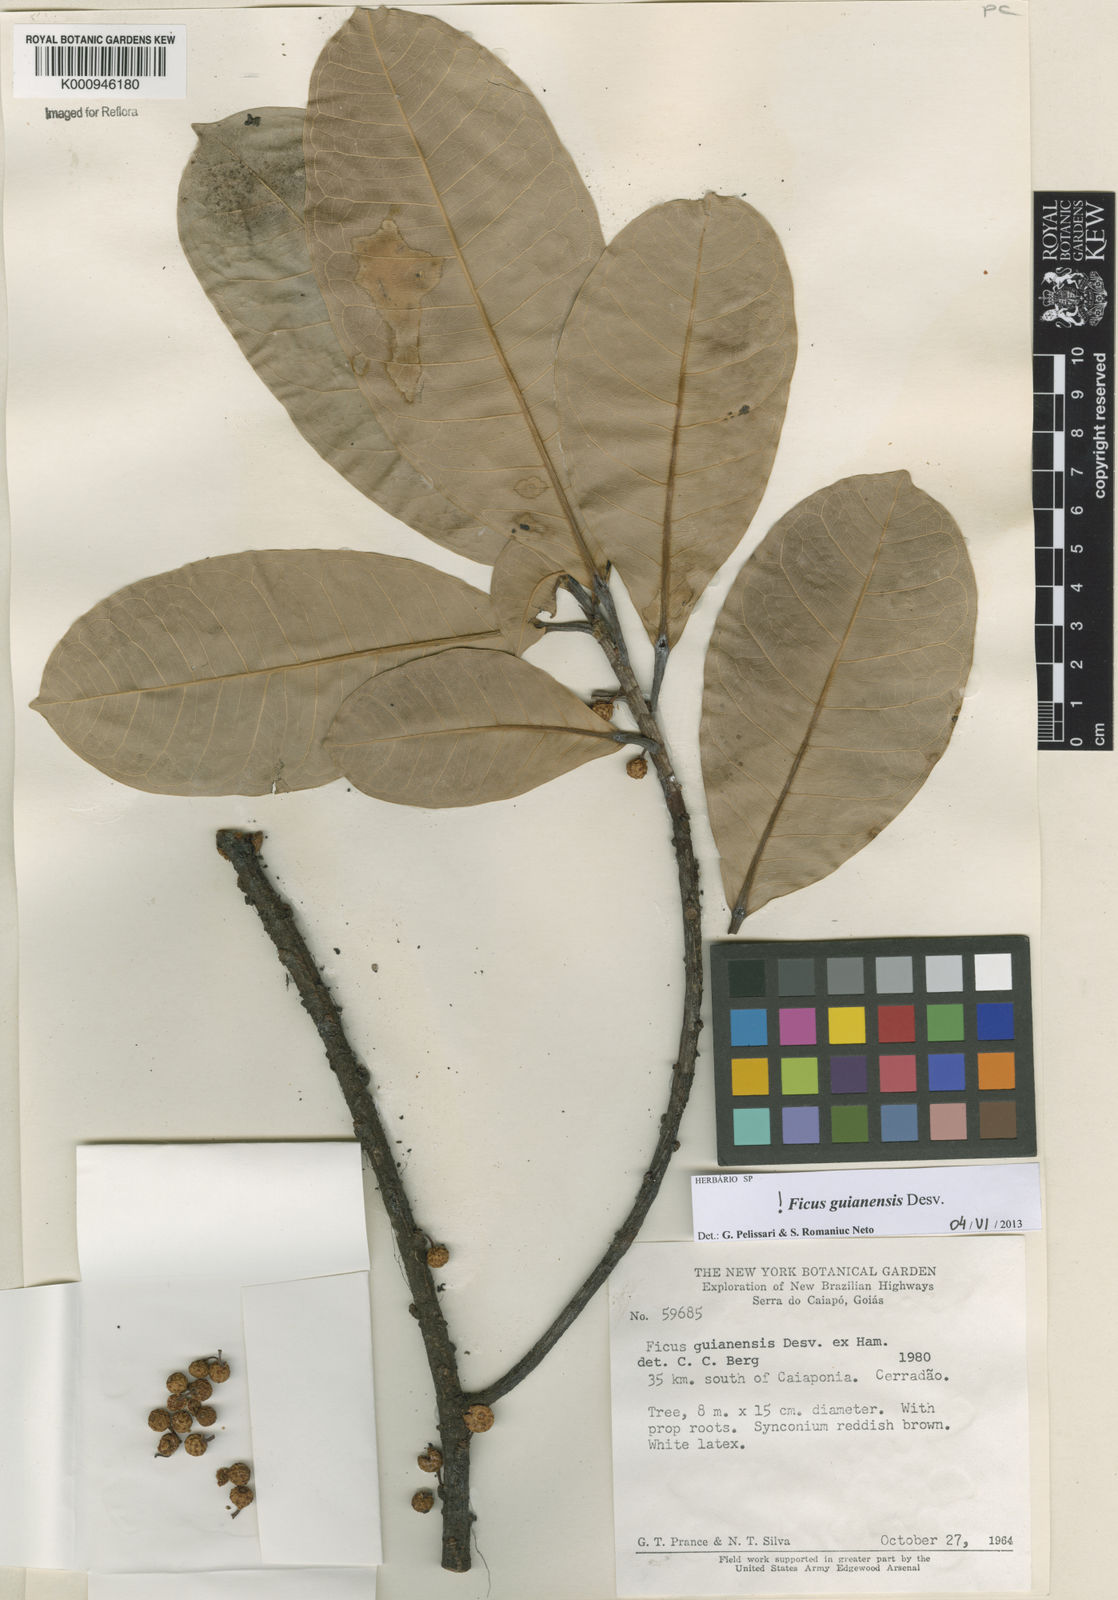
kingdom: Plantae
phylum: Tracheophyta
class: Magnoliopsida
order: Rosales
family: Moraceae
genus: Ficus
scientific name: Ficus americana
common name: Jamaican cherry fig
